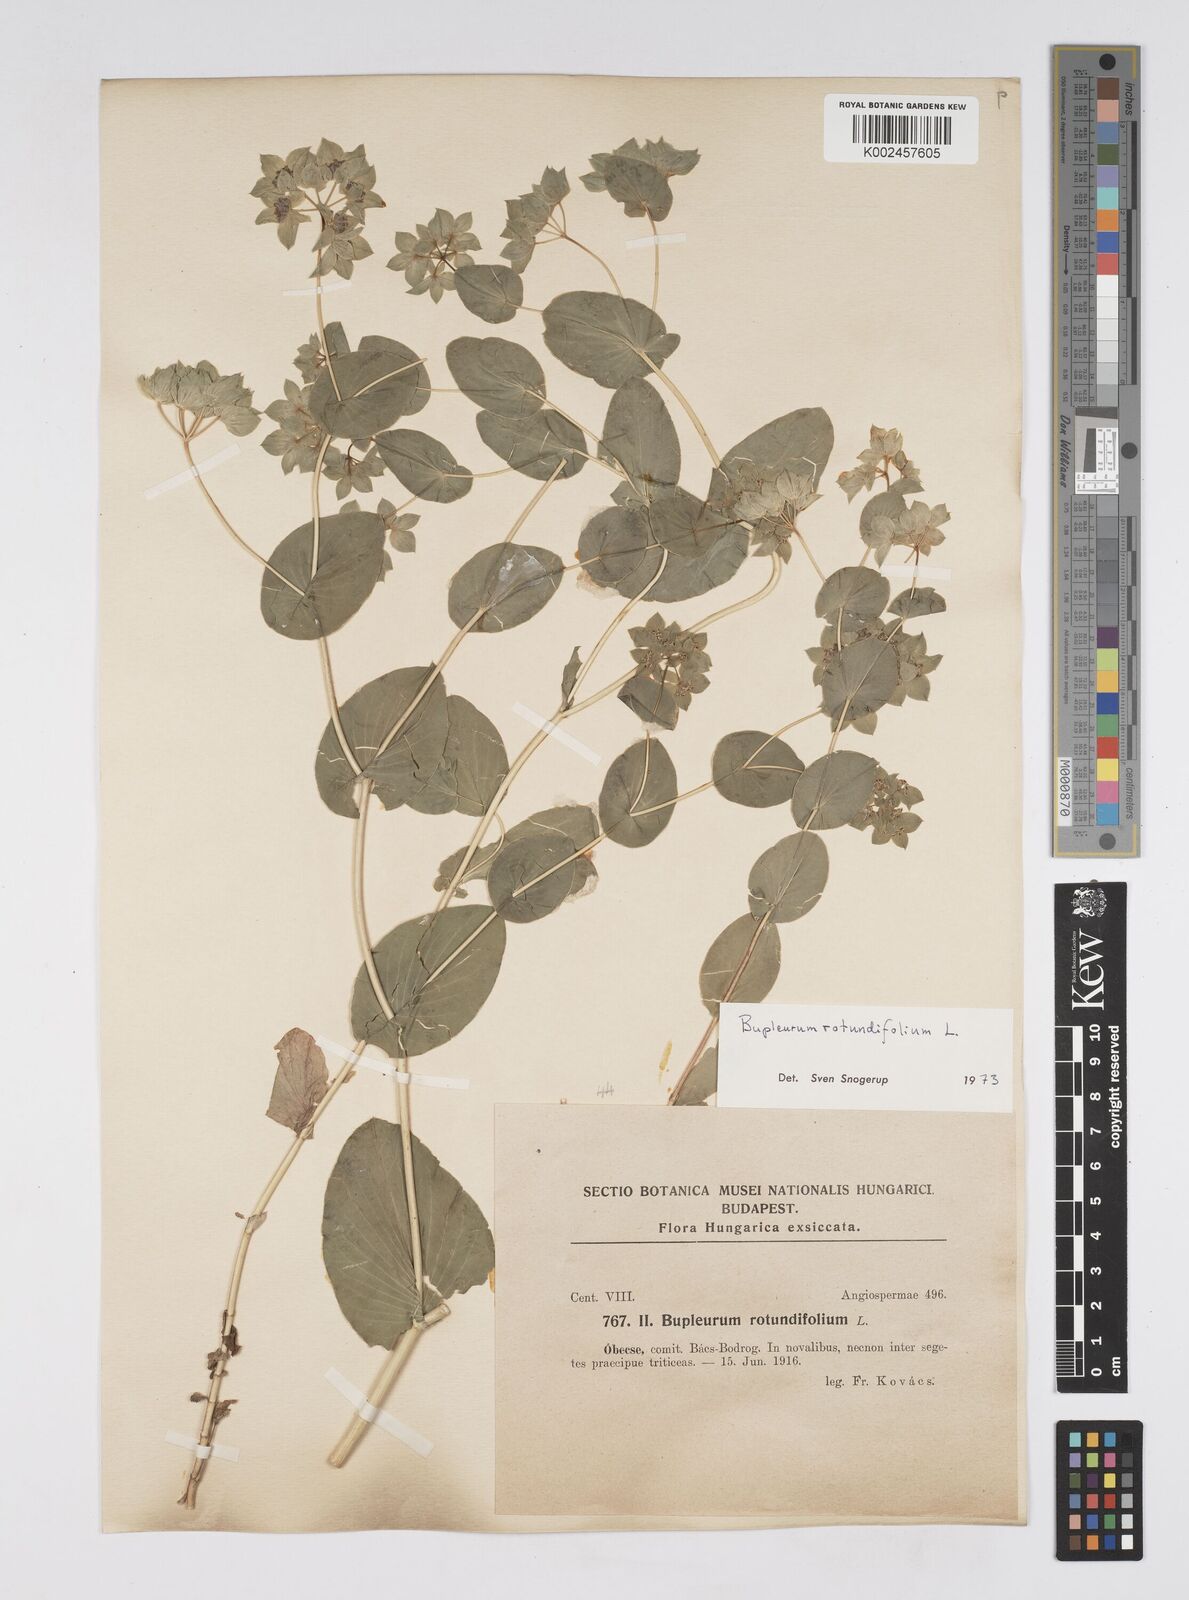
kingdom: Plantae
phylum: Tracheophyta
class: Magnoliopsida
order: Apiales
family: Apiaceae
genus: Bupleurum
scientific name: Bupleurum rotundifolium
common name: Thorow-wax
